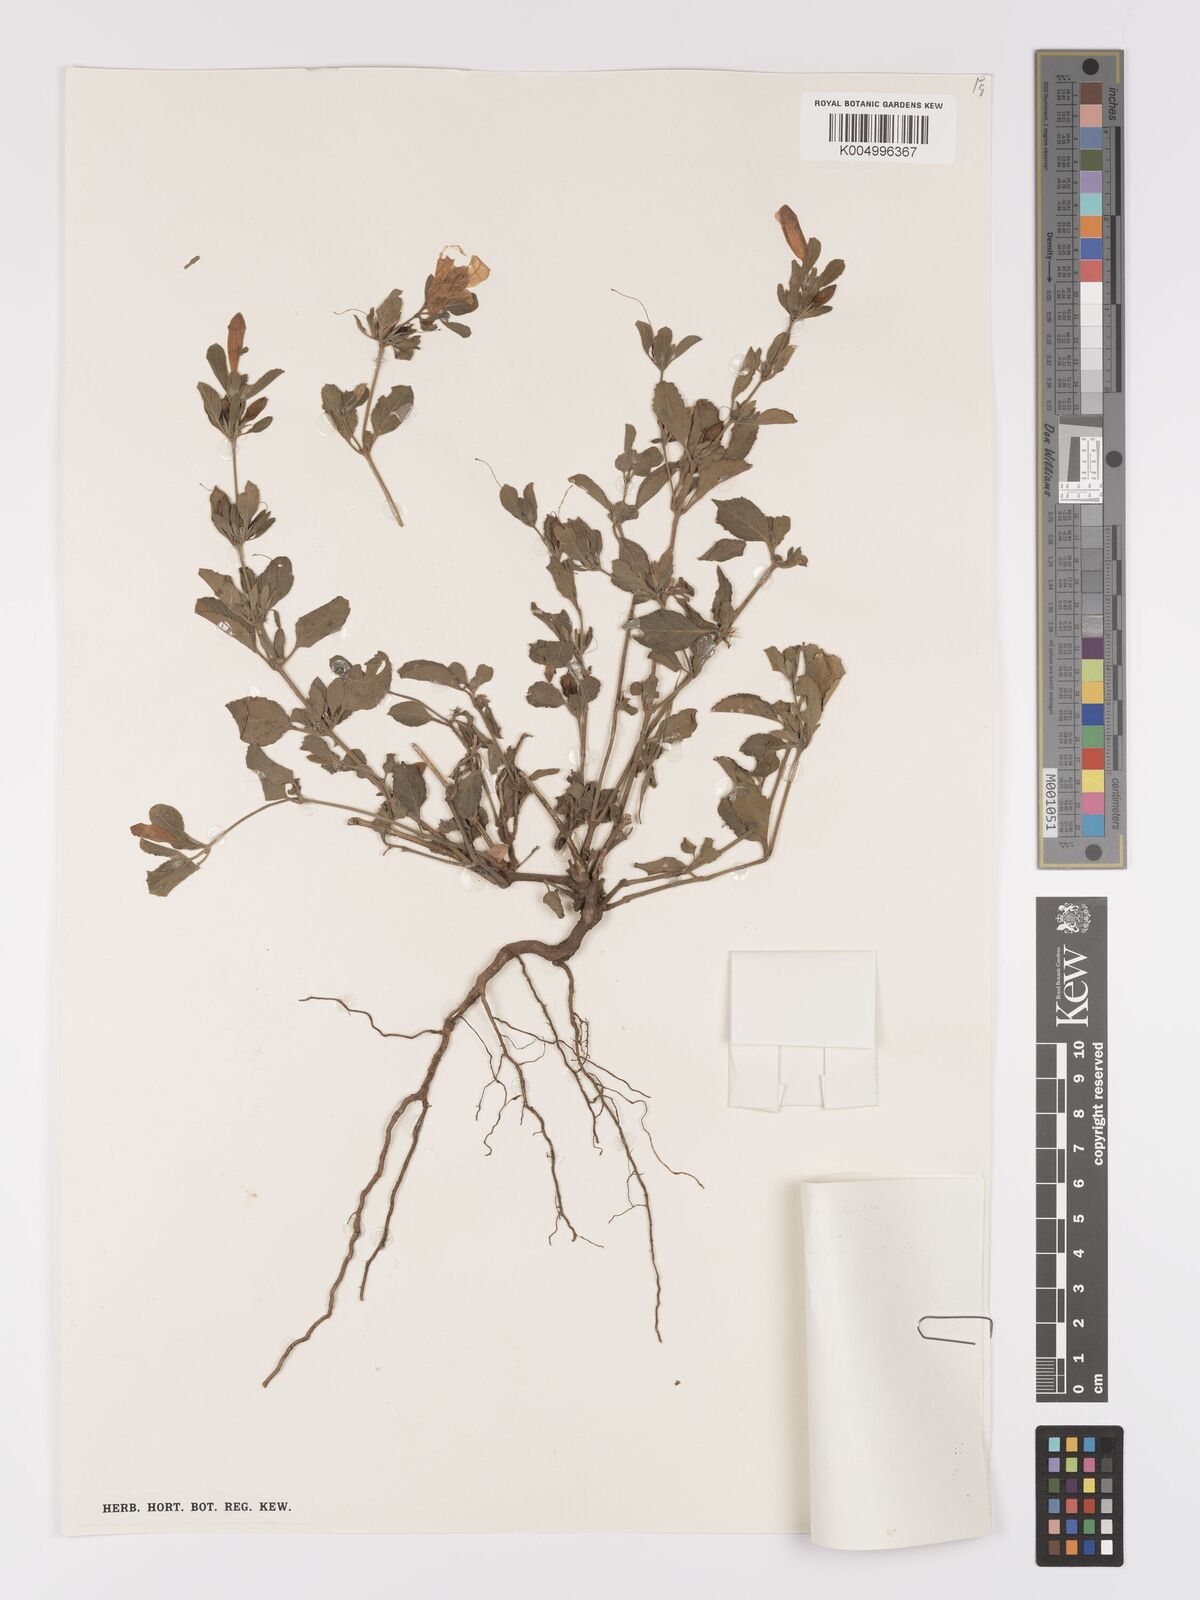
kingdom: Plantae
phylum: Tracheophyta
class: Magnoliopsida
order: Lamiales
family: Acanthaceae
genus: Ruellia
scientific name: Ruellia patula
